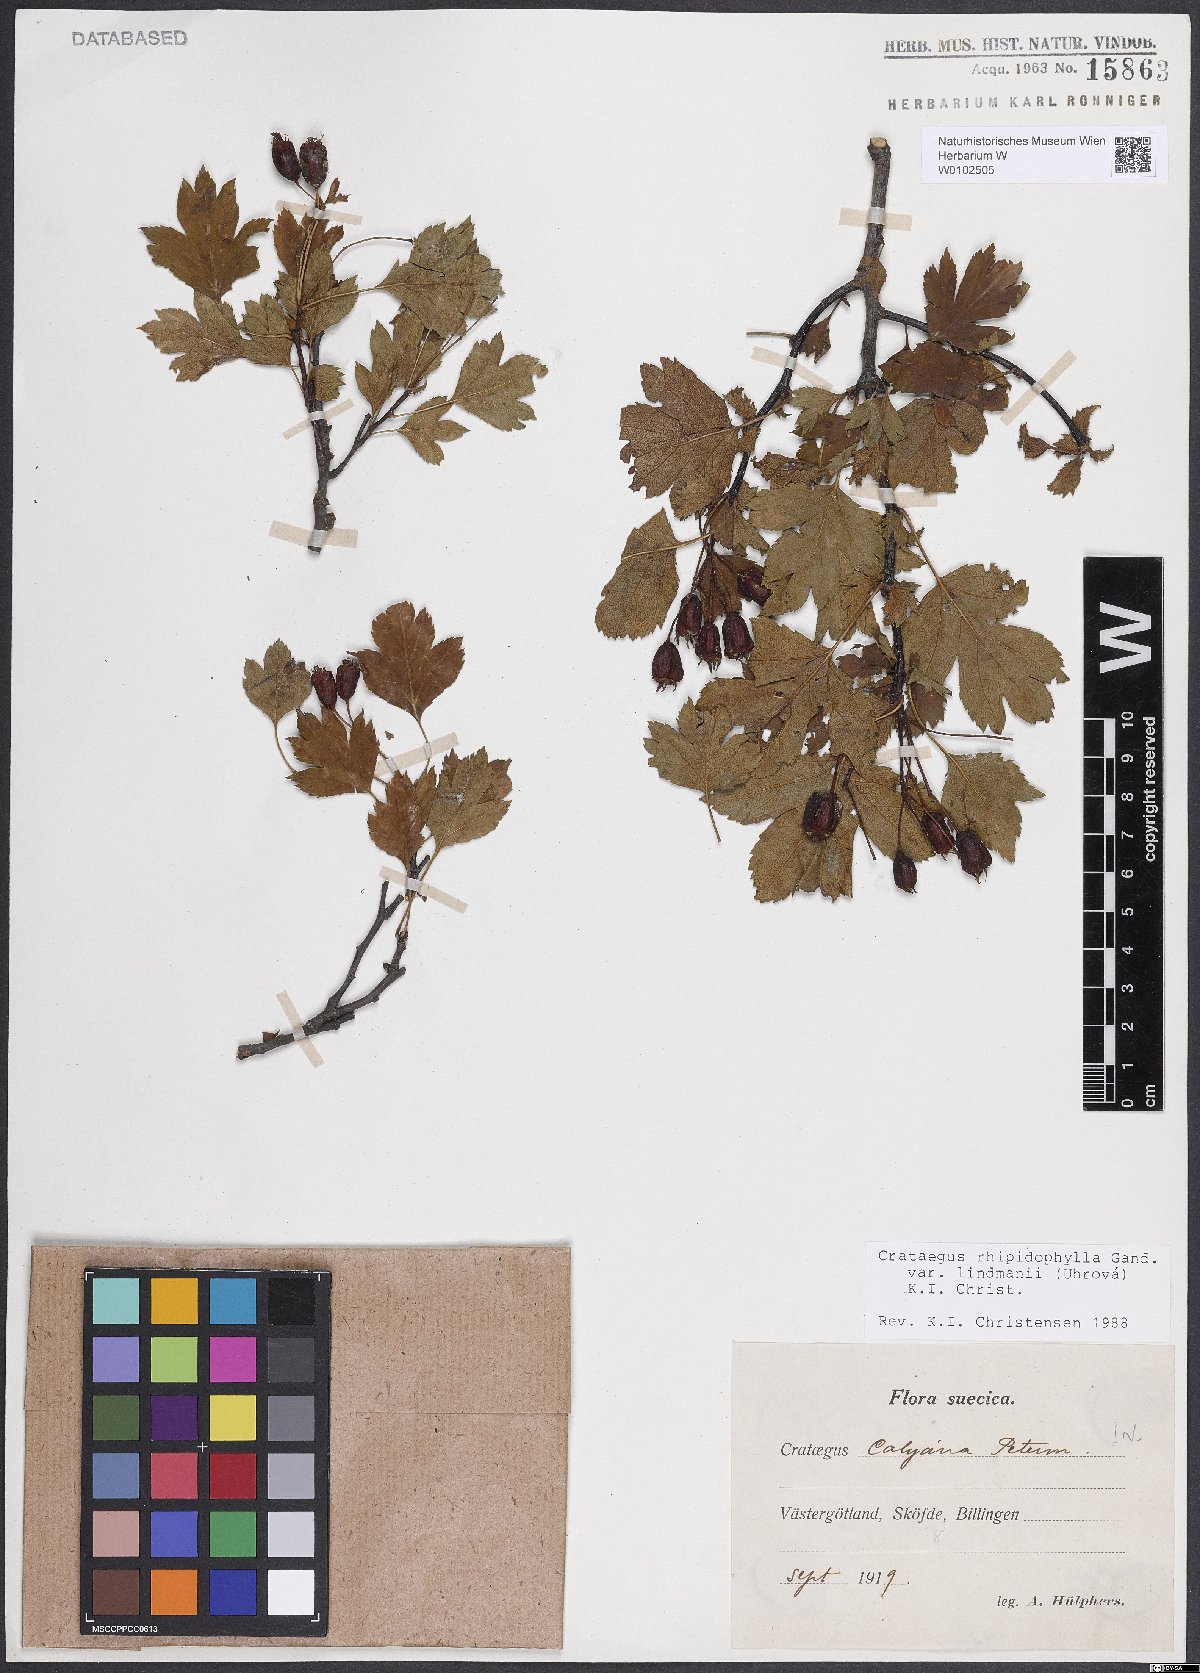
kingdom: Plantae
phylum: Tracheophyta
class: Magnoliopsida
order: Rosales
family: Rosaceae
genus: Crataegus
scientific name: Crataegus lindmanii
